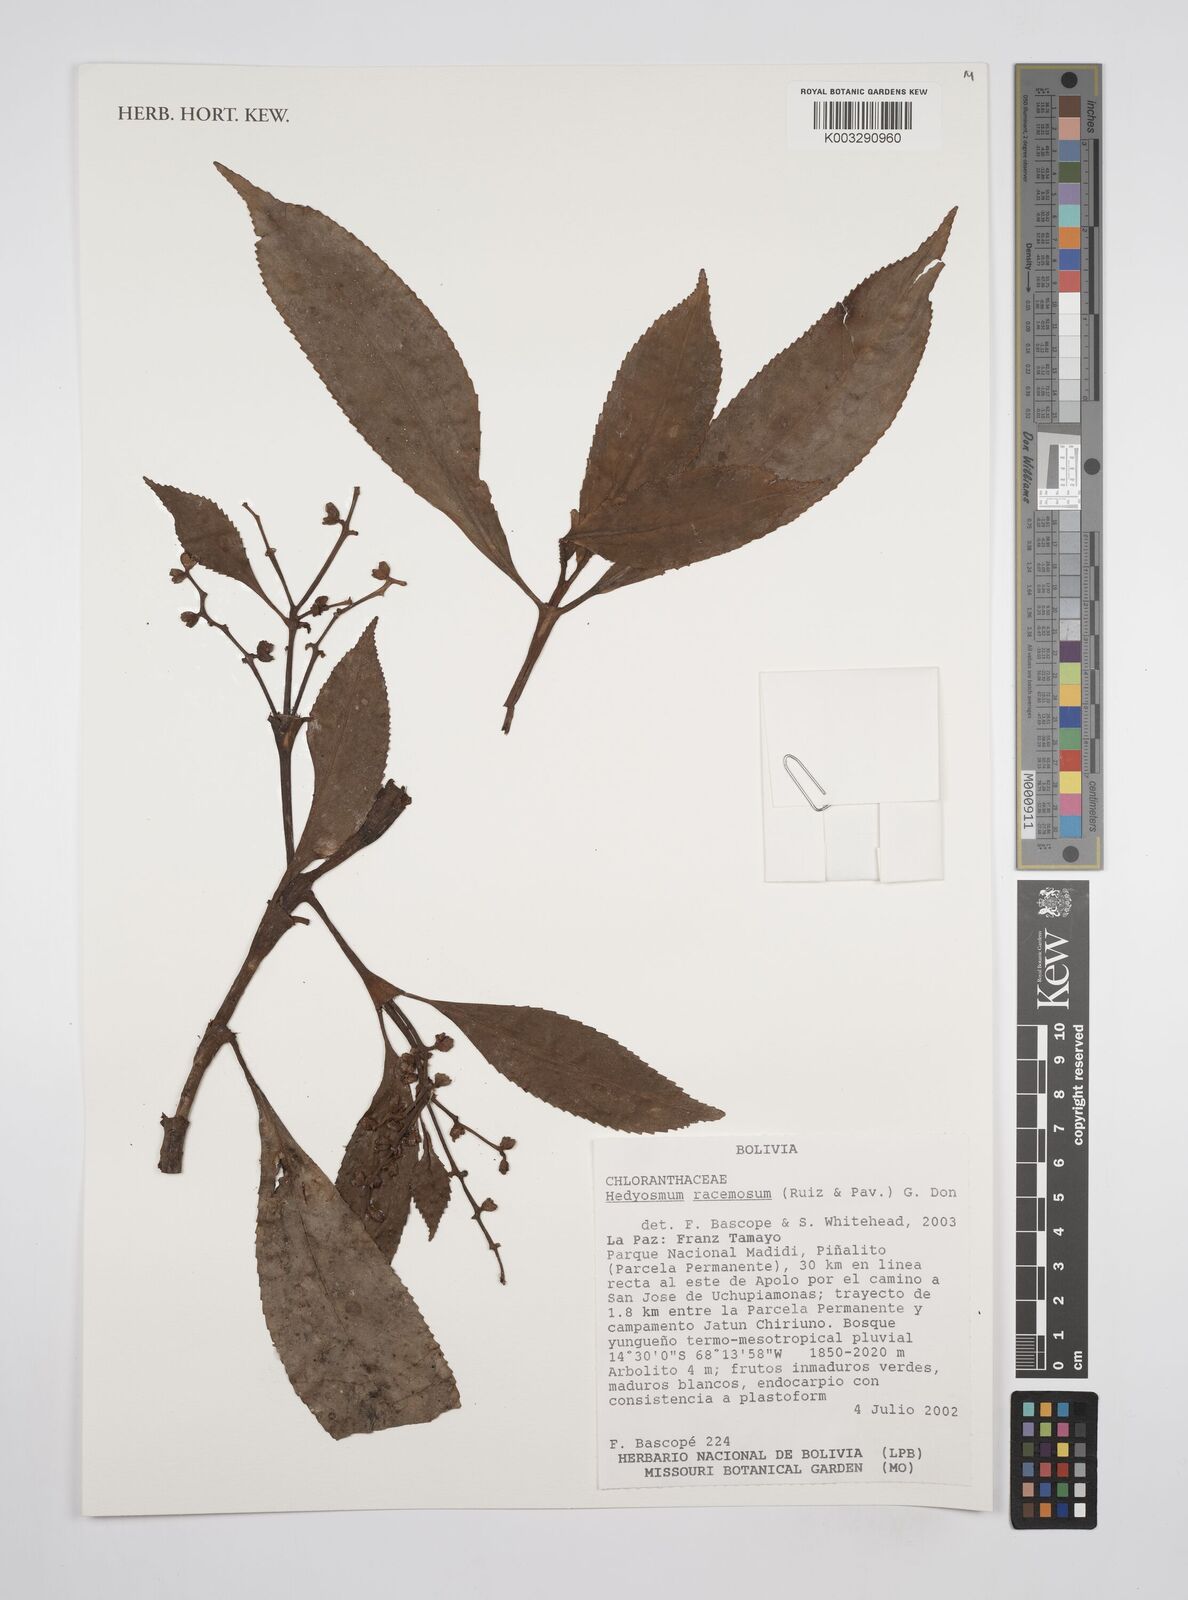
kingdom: Plantae
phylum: Tracheophyta
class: Magnoliopsida
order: Chloranthales
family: Chloranthaceae
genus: Hedyosmum
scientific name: Hedyosmum racemosum
